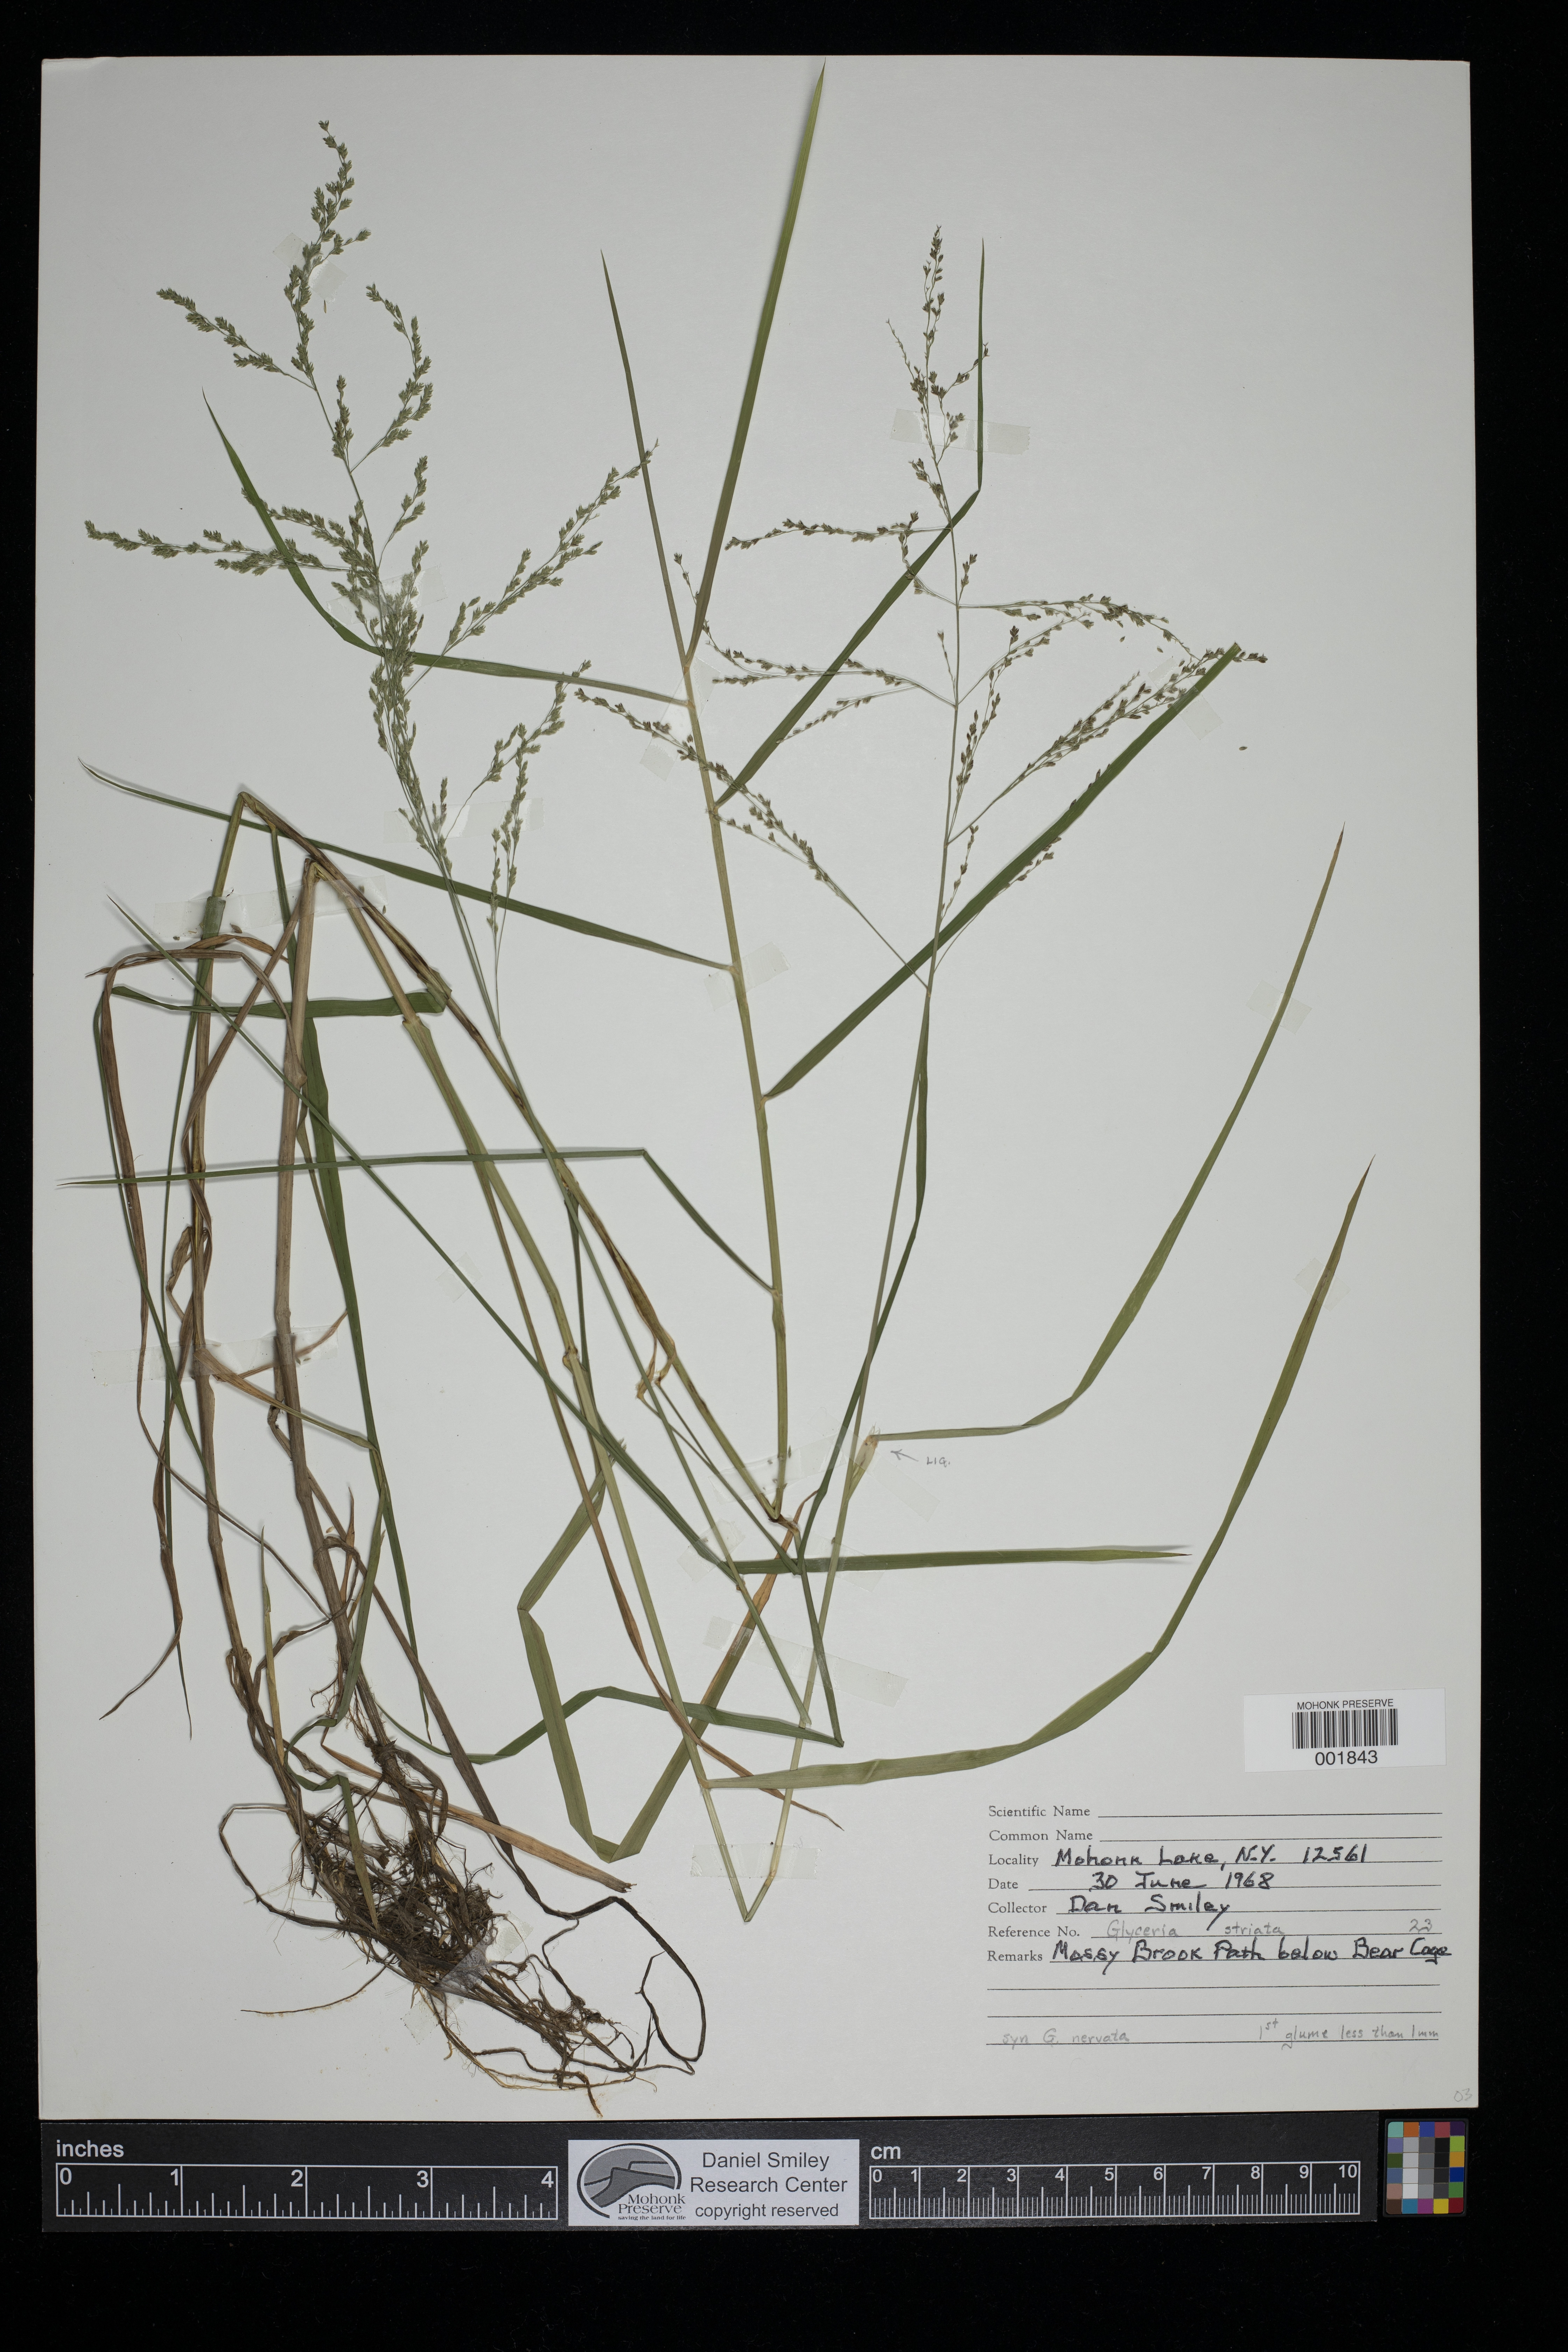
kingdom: Plantae
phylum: Tracheophyta
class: Liliopsida
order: Poales
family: Poaceae
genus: Glyceria
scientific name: Glyceria striata
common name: Fowl manna grass
